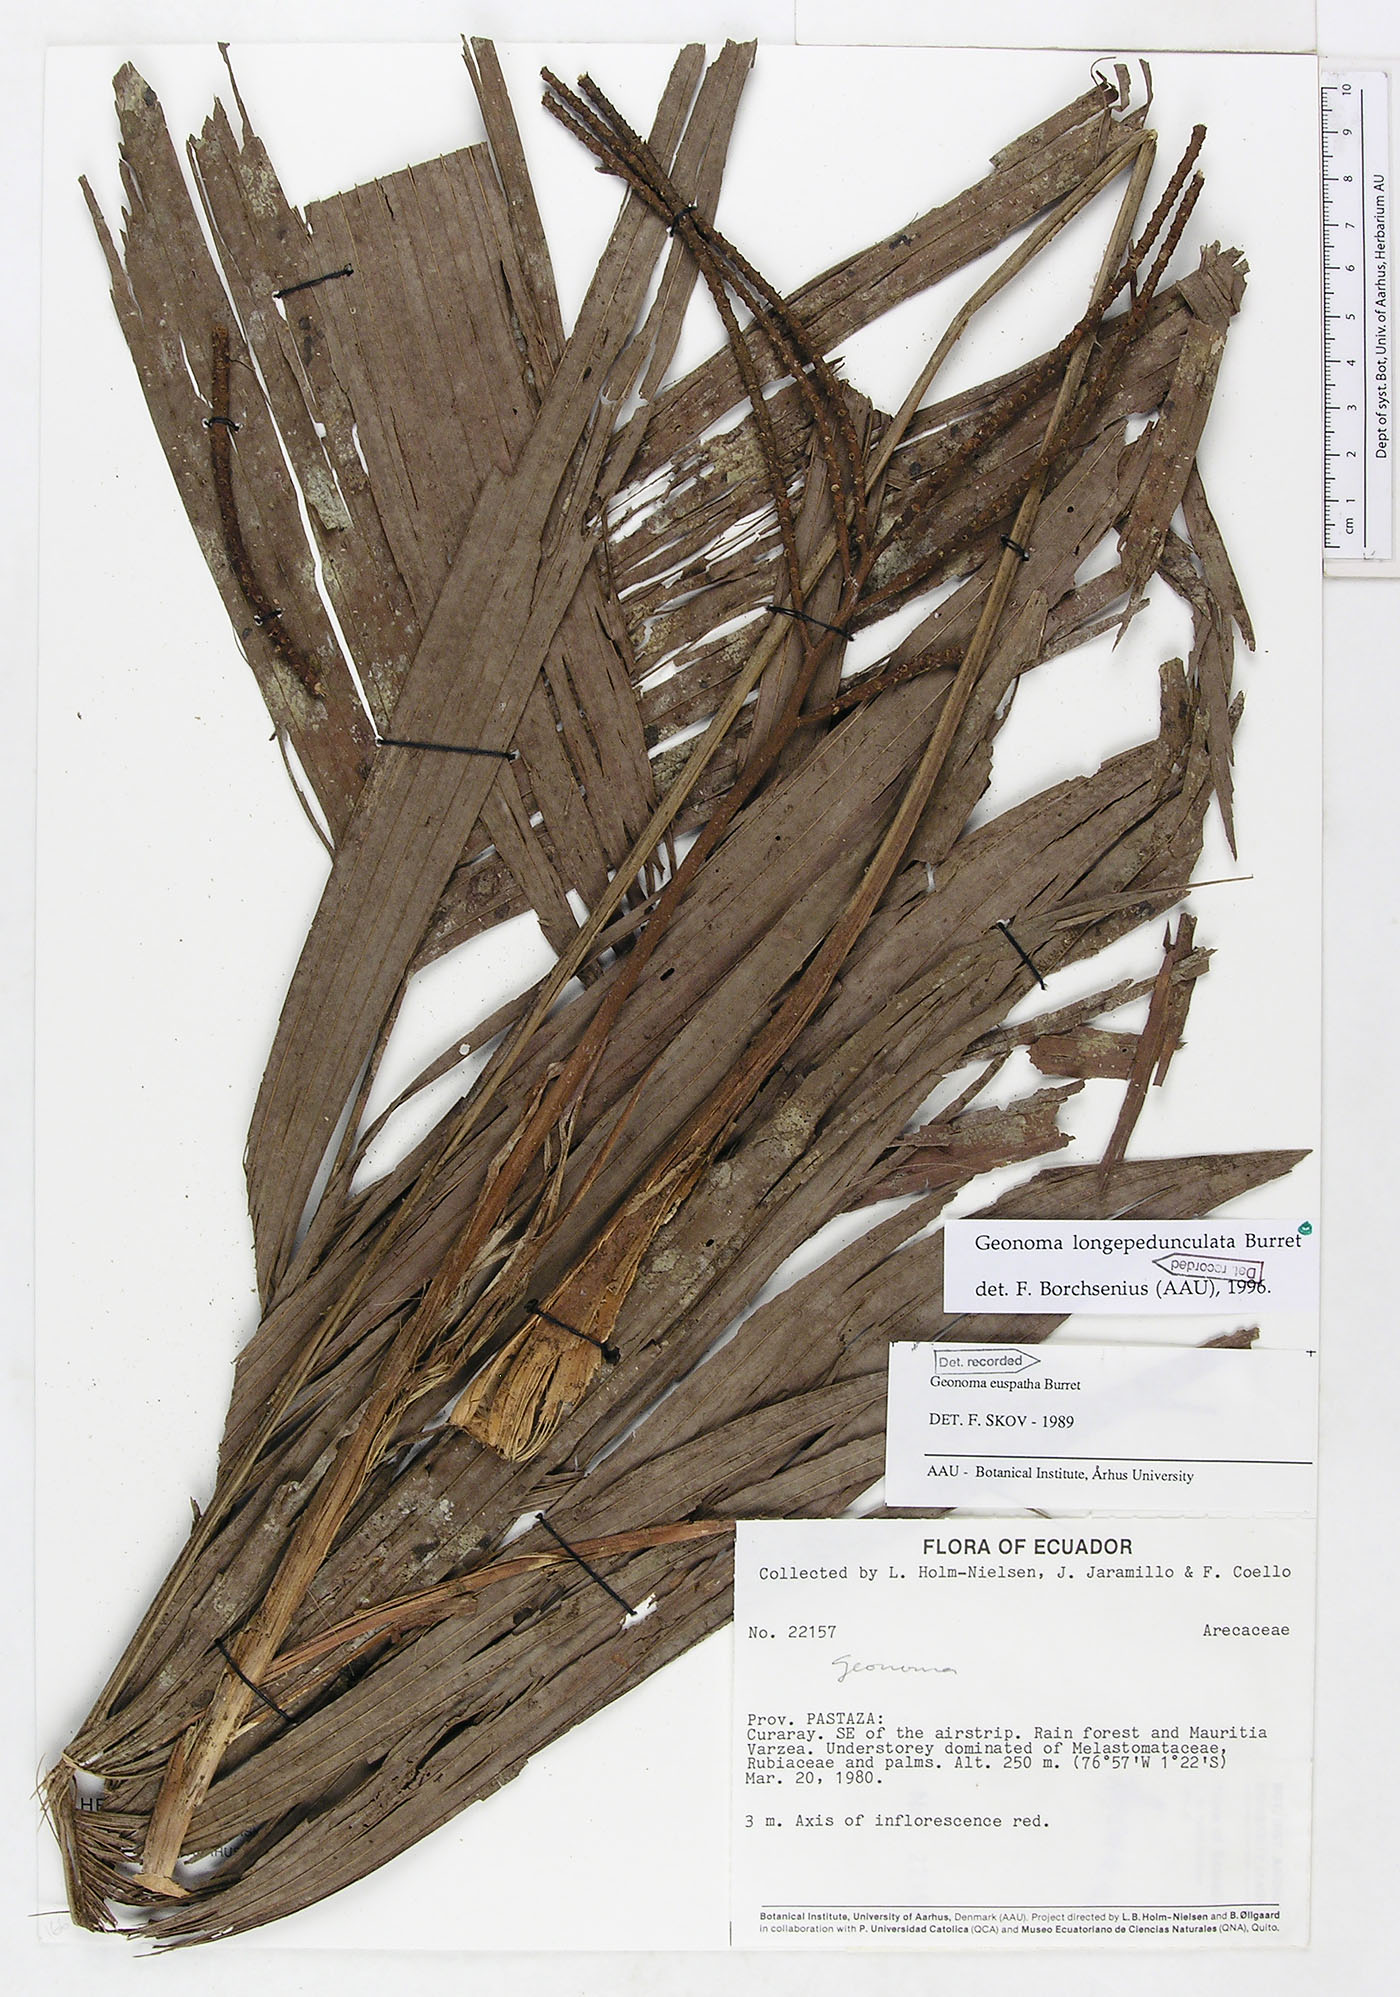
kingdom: Plantae
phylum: Tracheophyta
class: Liliopsida
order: Arecales
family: Arecaceae
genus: Geonoma
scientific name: Geonoma longepedunculata
